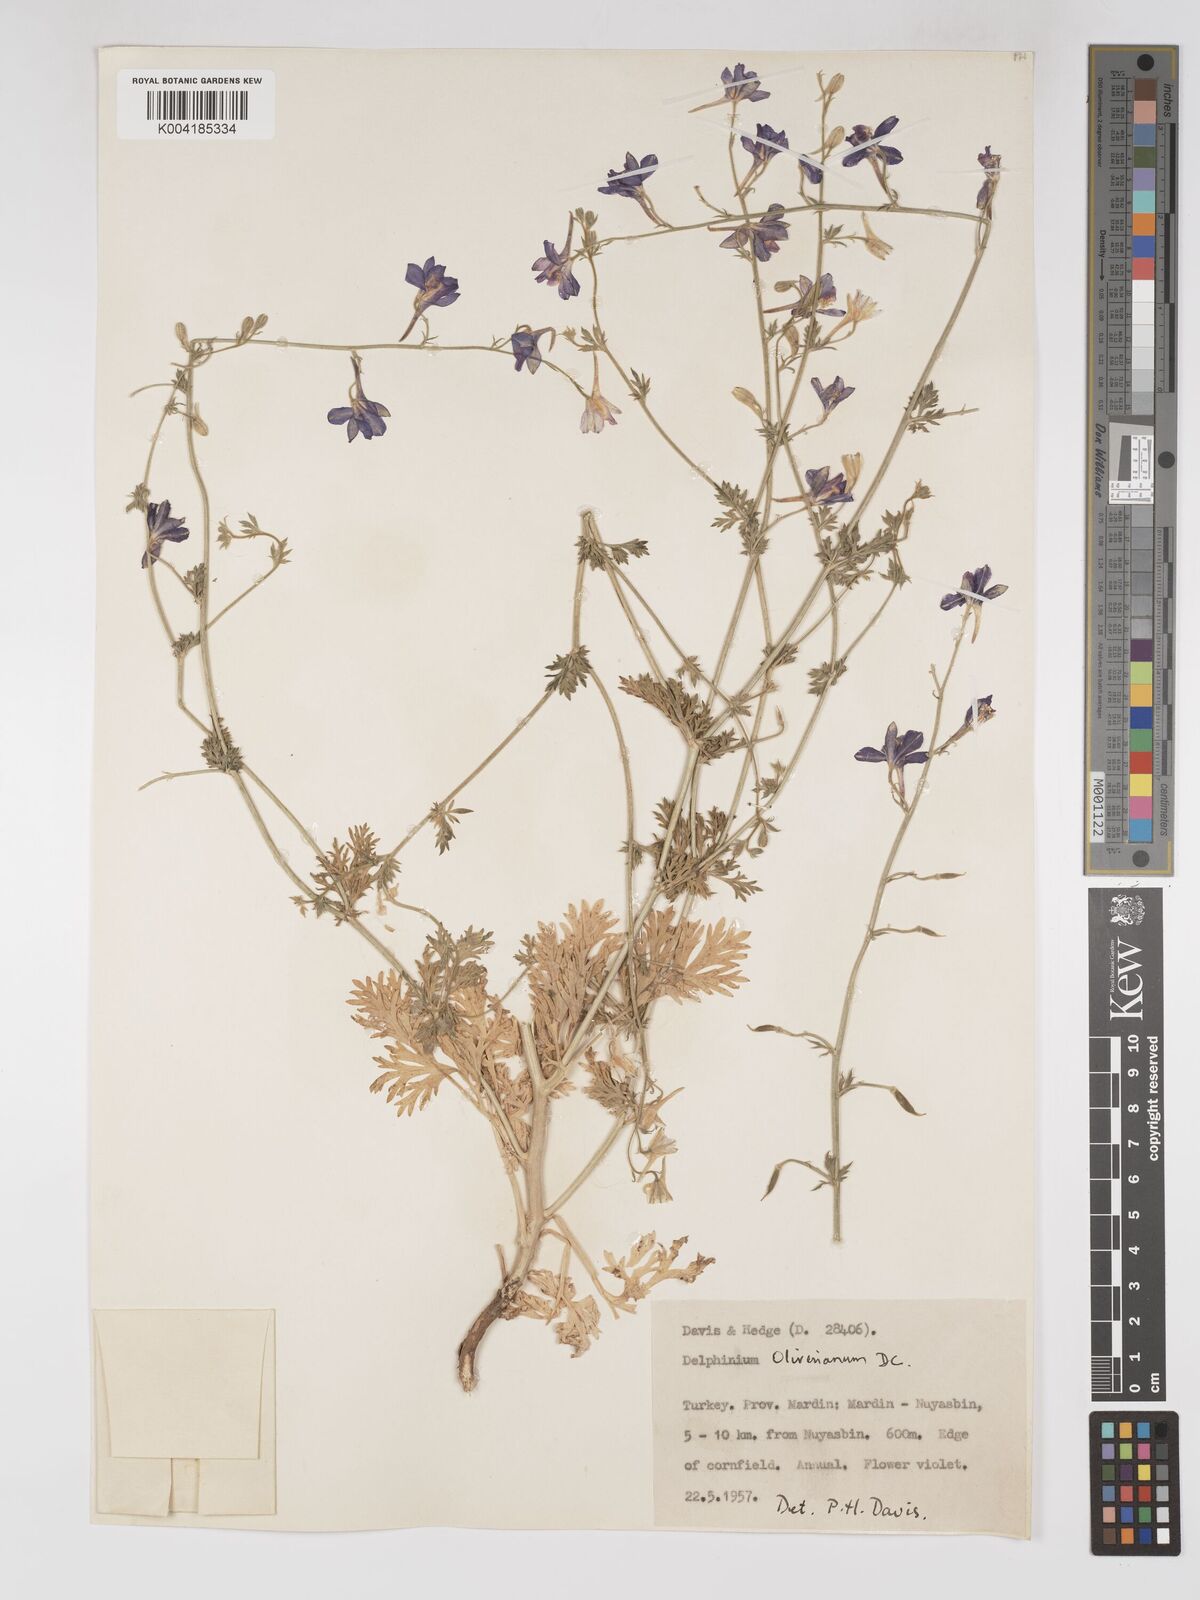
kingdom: Plantae
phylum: Tracheophyta
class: Magnoliopsida
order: Ranunculales
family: Ranunculaceae
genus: Delphinium
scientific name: Delphinium oliverianum
